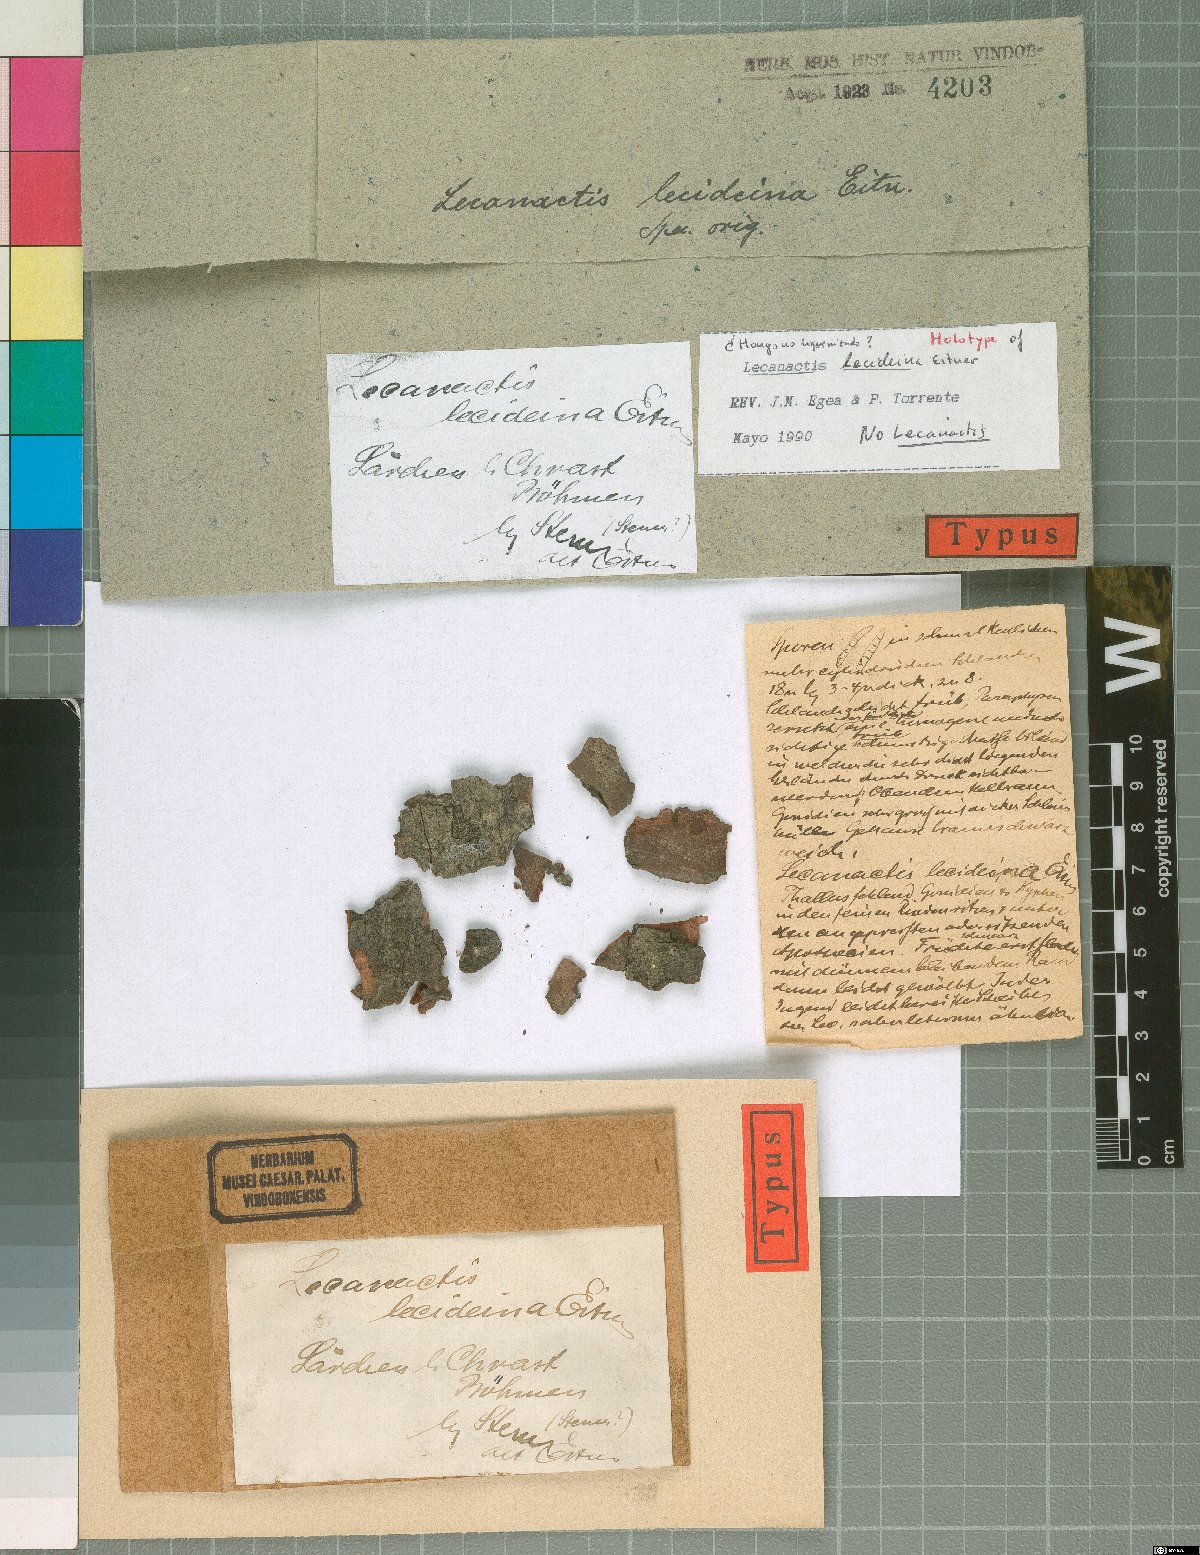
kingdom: Fungi
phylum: Ascomycota
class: Arthoniomycetes
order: Arthoniales
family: Roccellaceae
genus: Lecanactis
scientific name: Lecanactis
